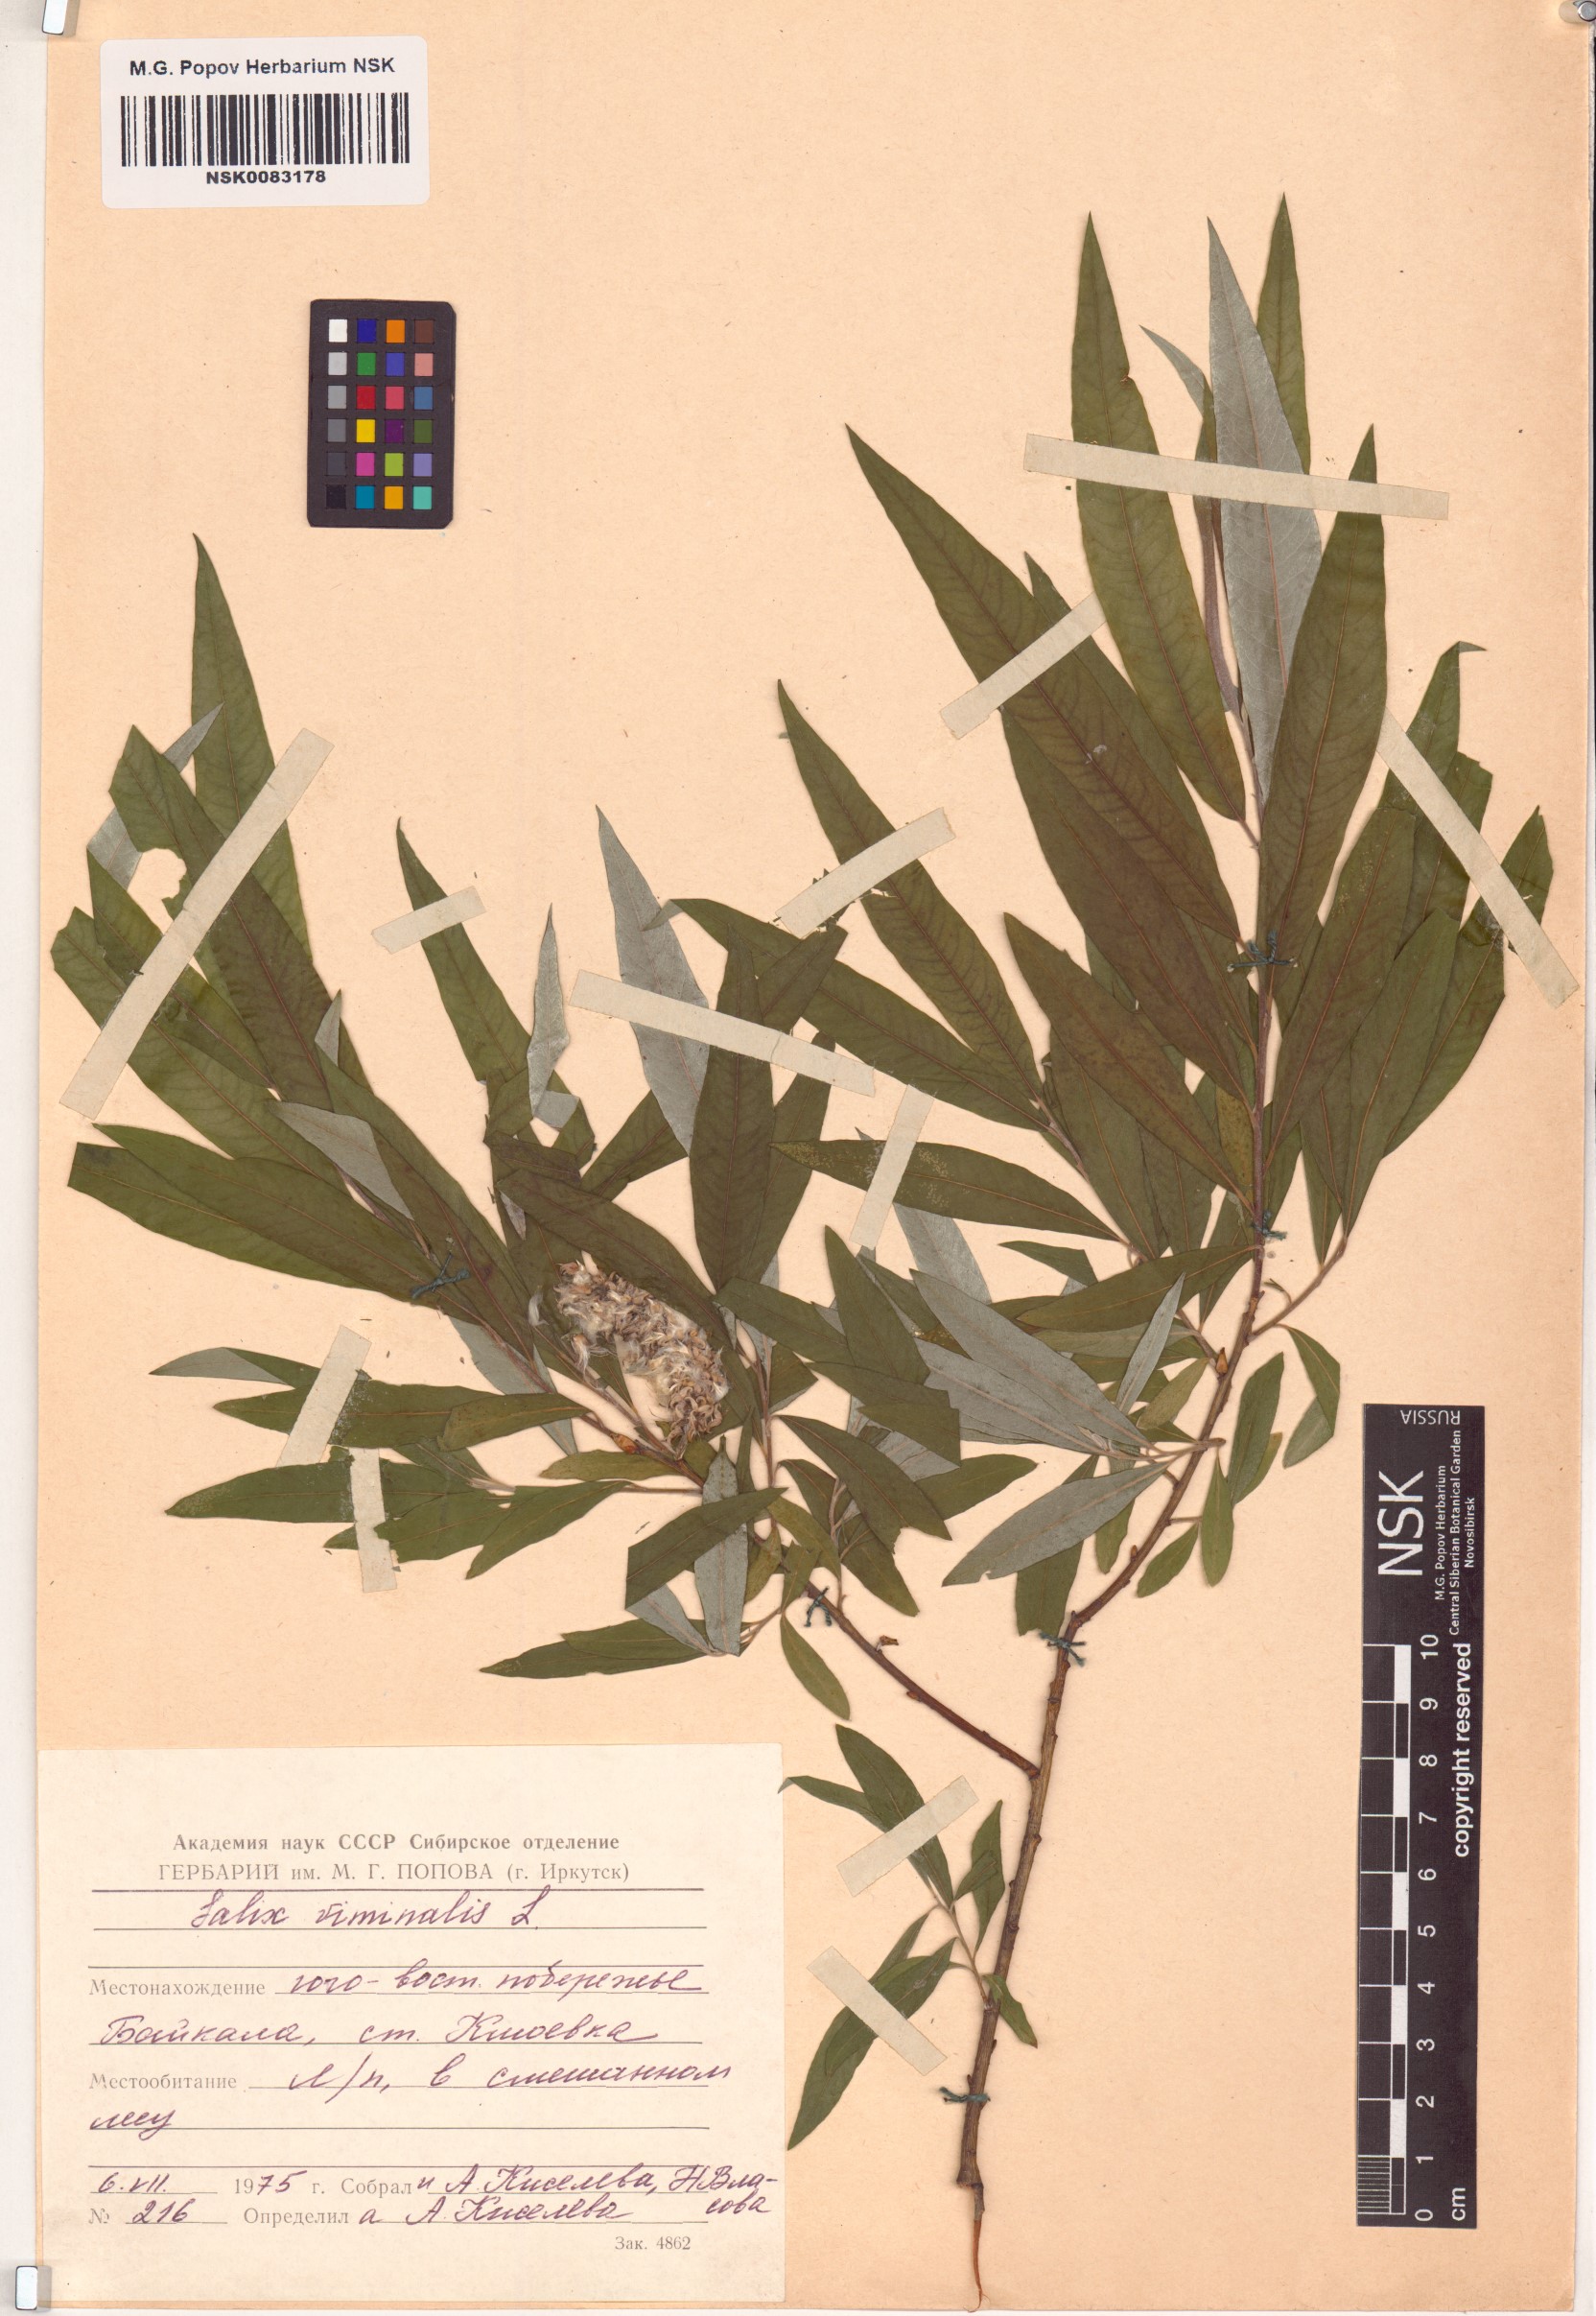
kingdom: Plantae
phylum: Tracheophyta
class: Magnoliopsida
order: Malpighiales
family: Salicaceae
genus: Salix
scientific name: Salix viminalis
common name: Osier
